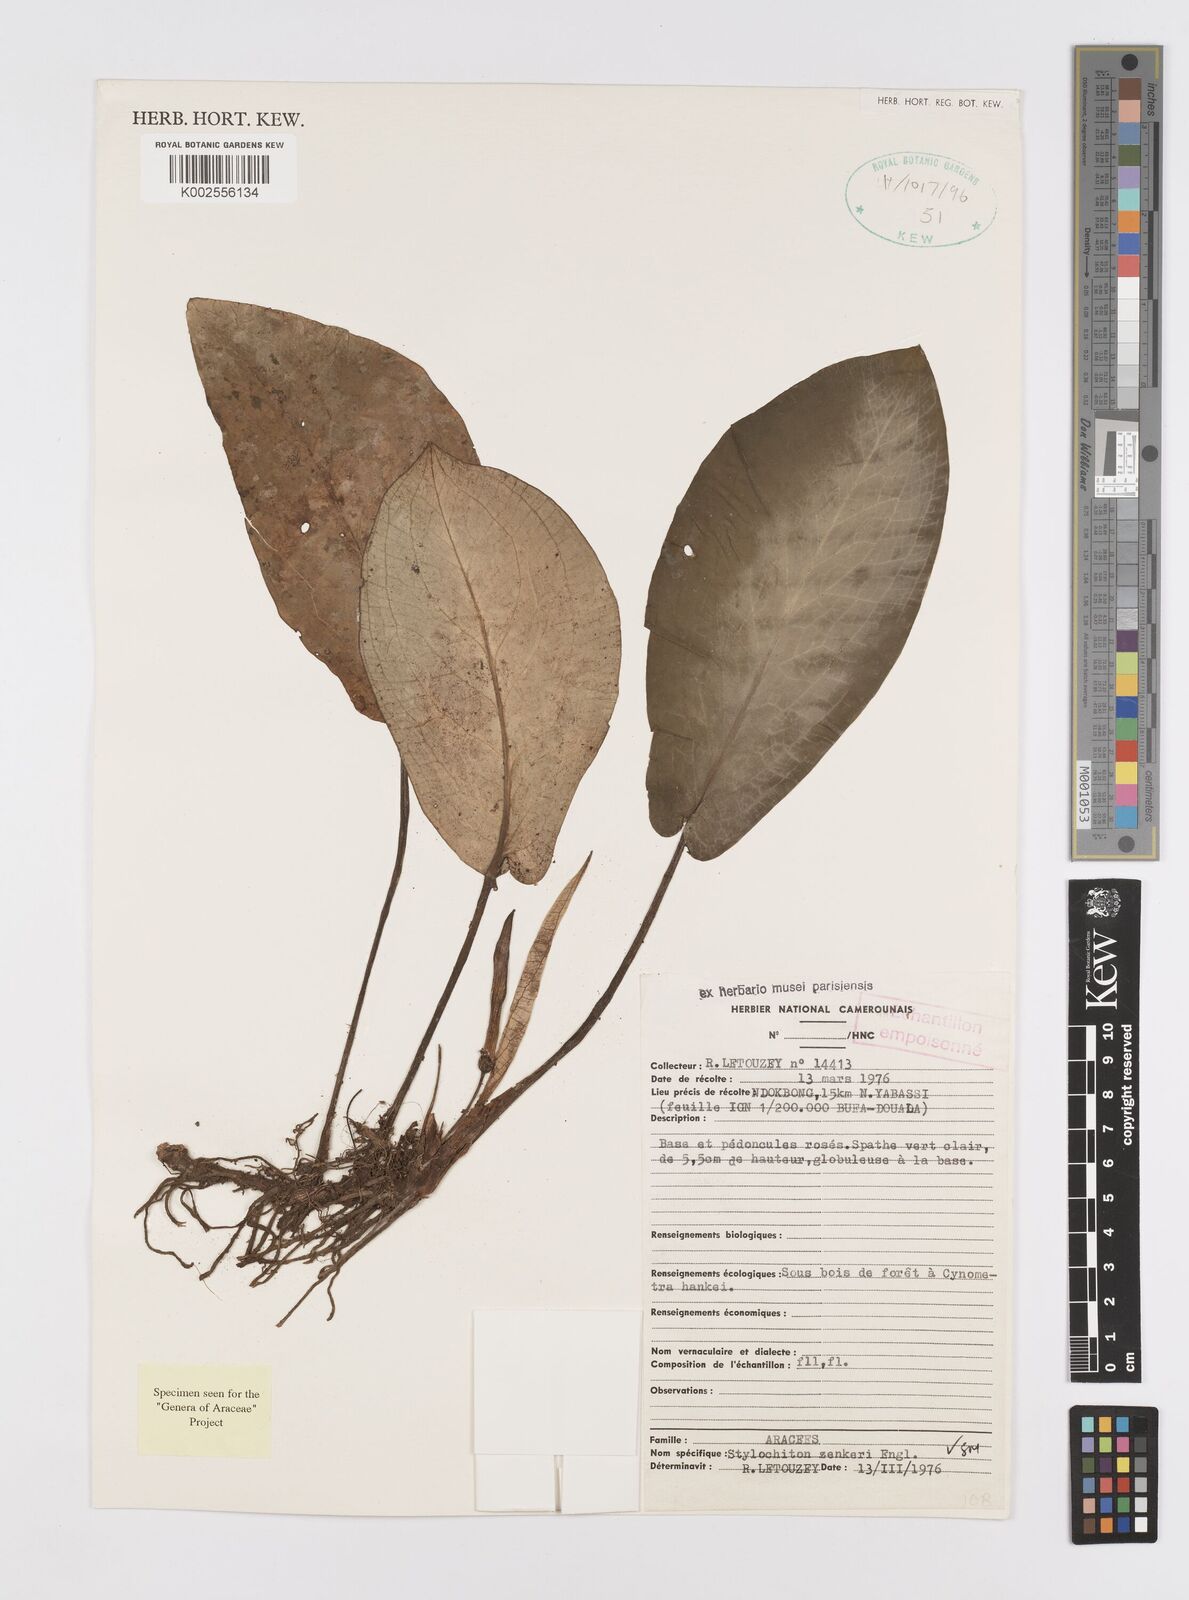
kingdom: Plantae
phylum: Tracheophyta
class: Liliopsida
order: Alismatales
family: Araceae
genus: Stylochaeton
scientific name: Stylochaeton zenkeri
